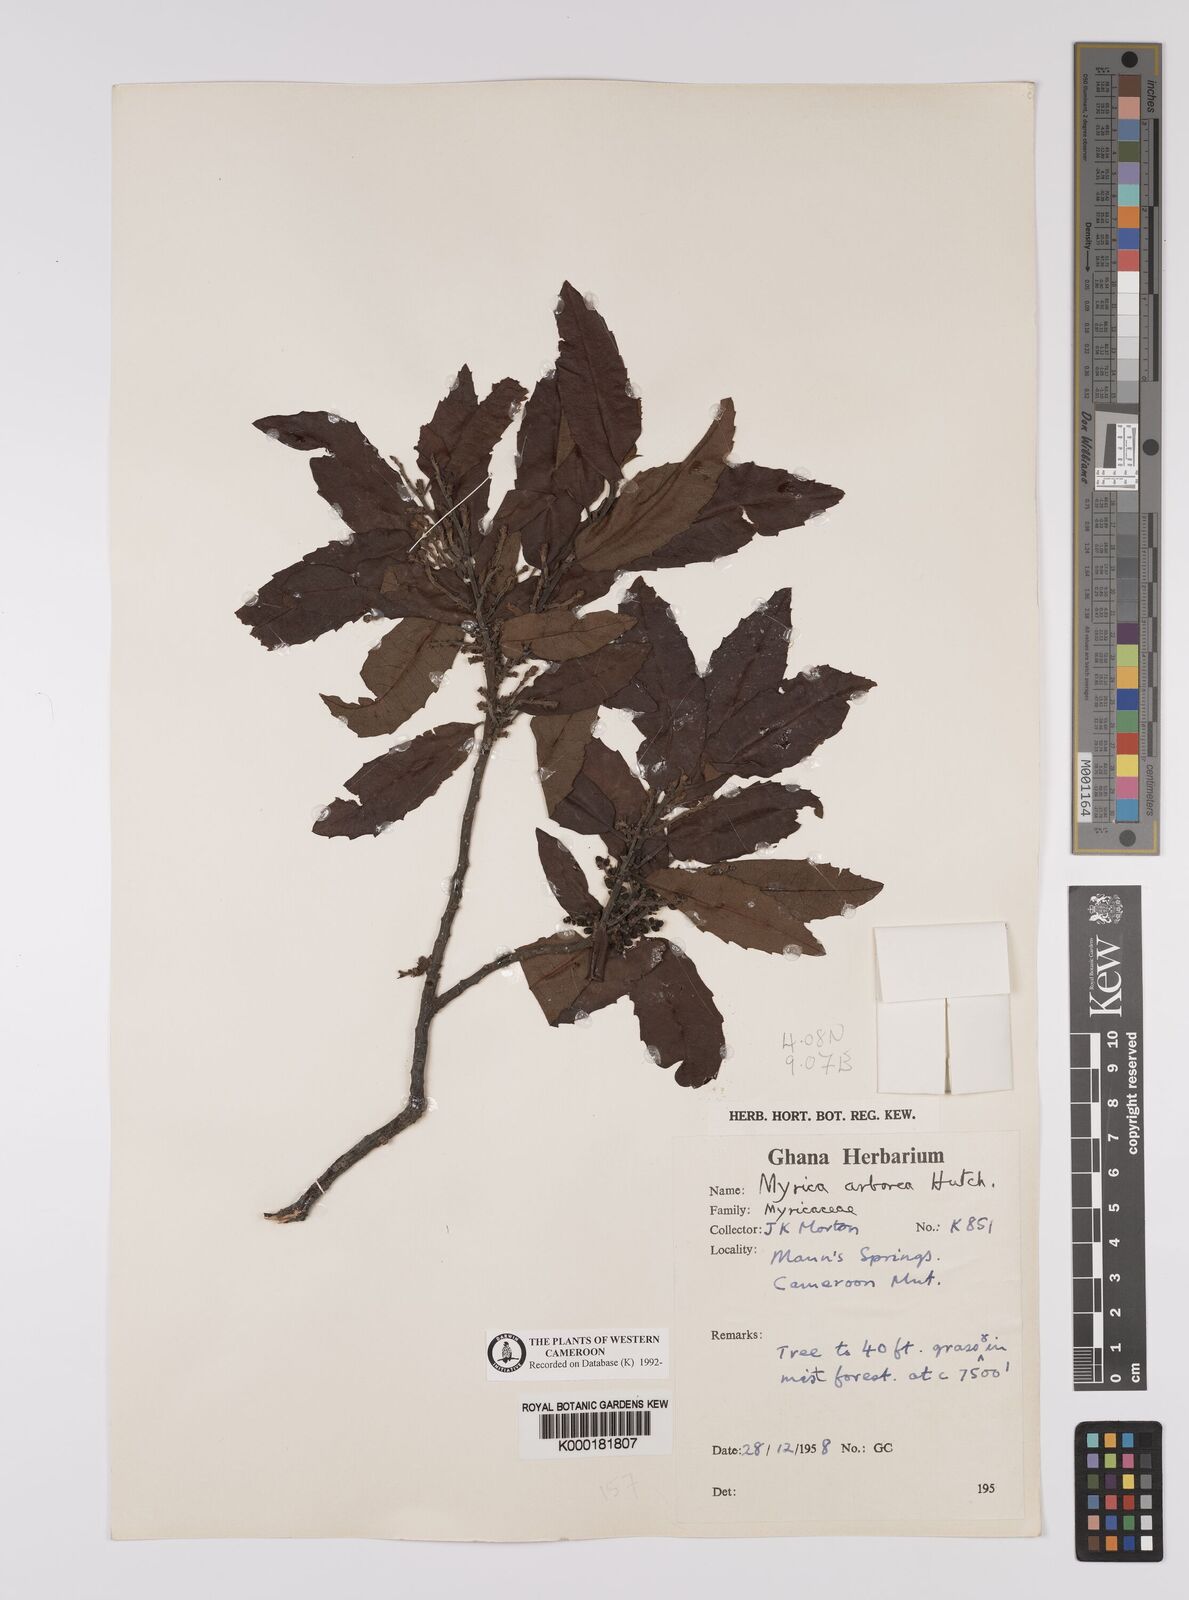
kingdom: Plantae
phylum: Tracheophyta
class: Magnoliopsida
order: Fagales
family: Myricaceae
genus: Morella
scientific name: Morella arborea
